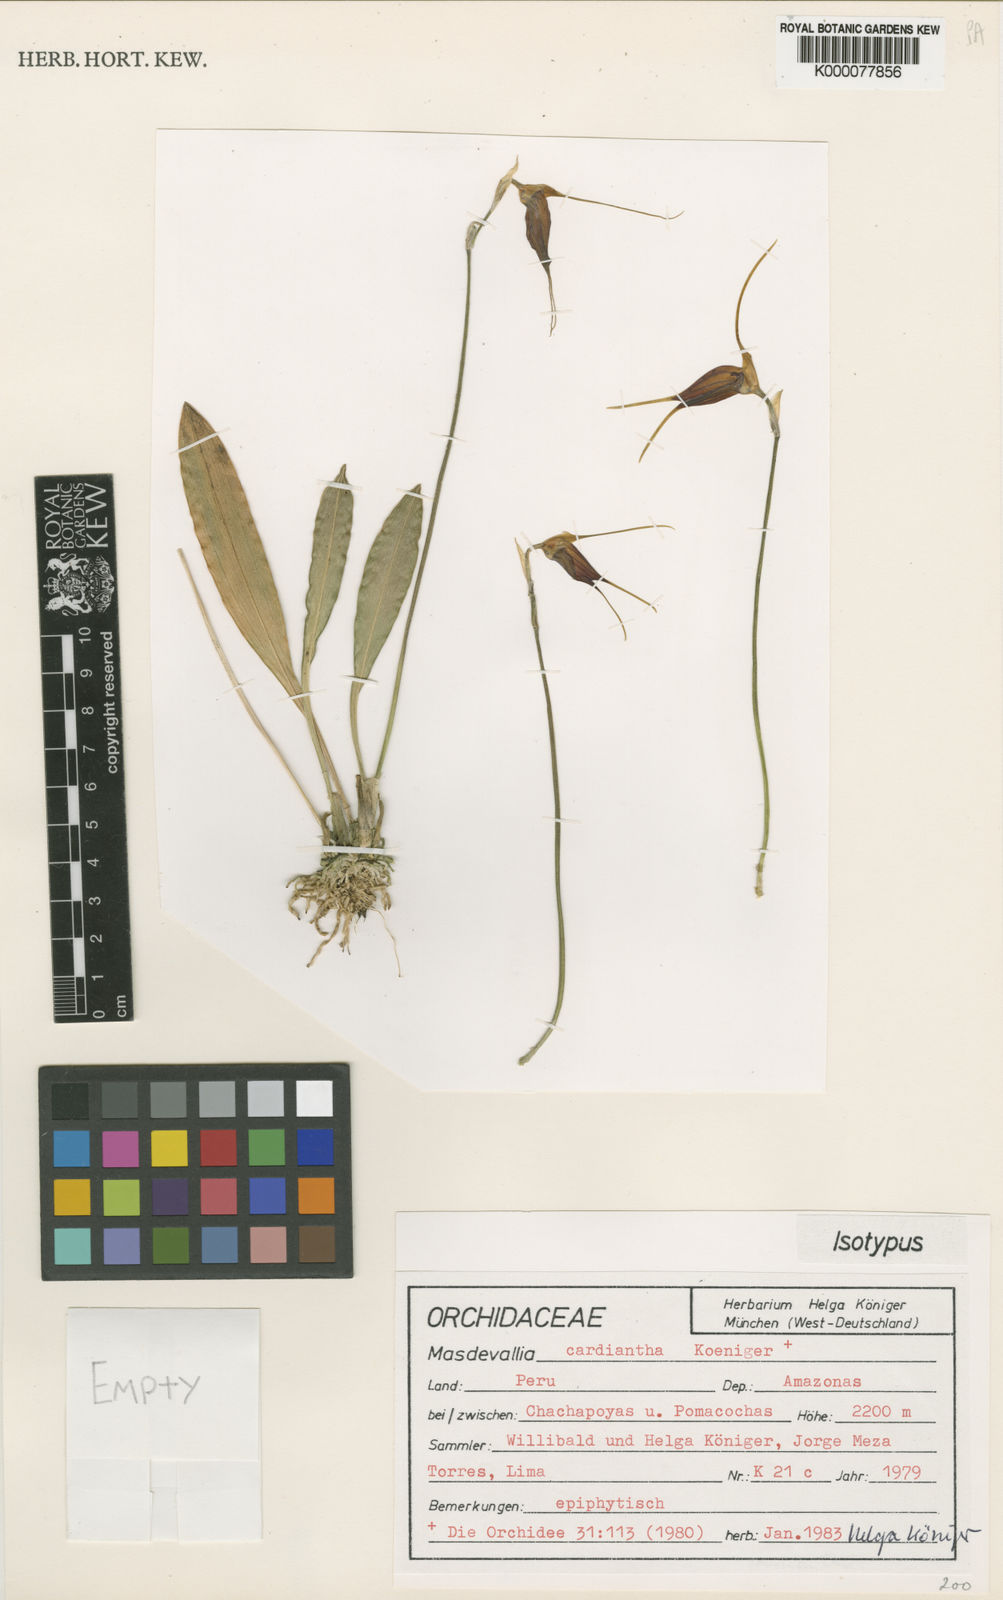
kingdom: Plantae
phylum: Tracheophyta
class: Liliopsida
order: Asparagales
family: Orchidaceae
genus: Masdevallia
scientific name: Masdevallia
